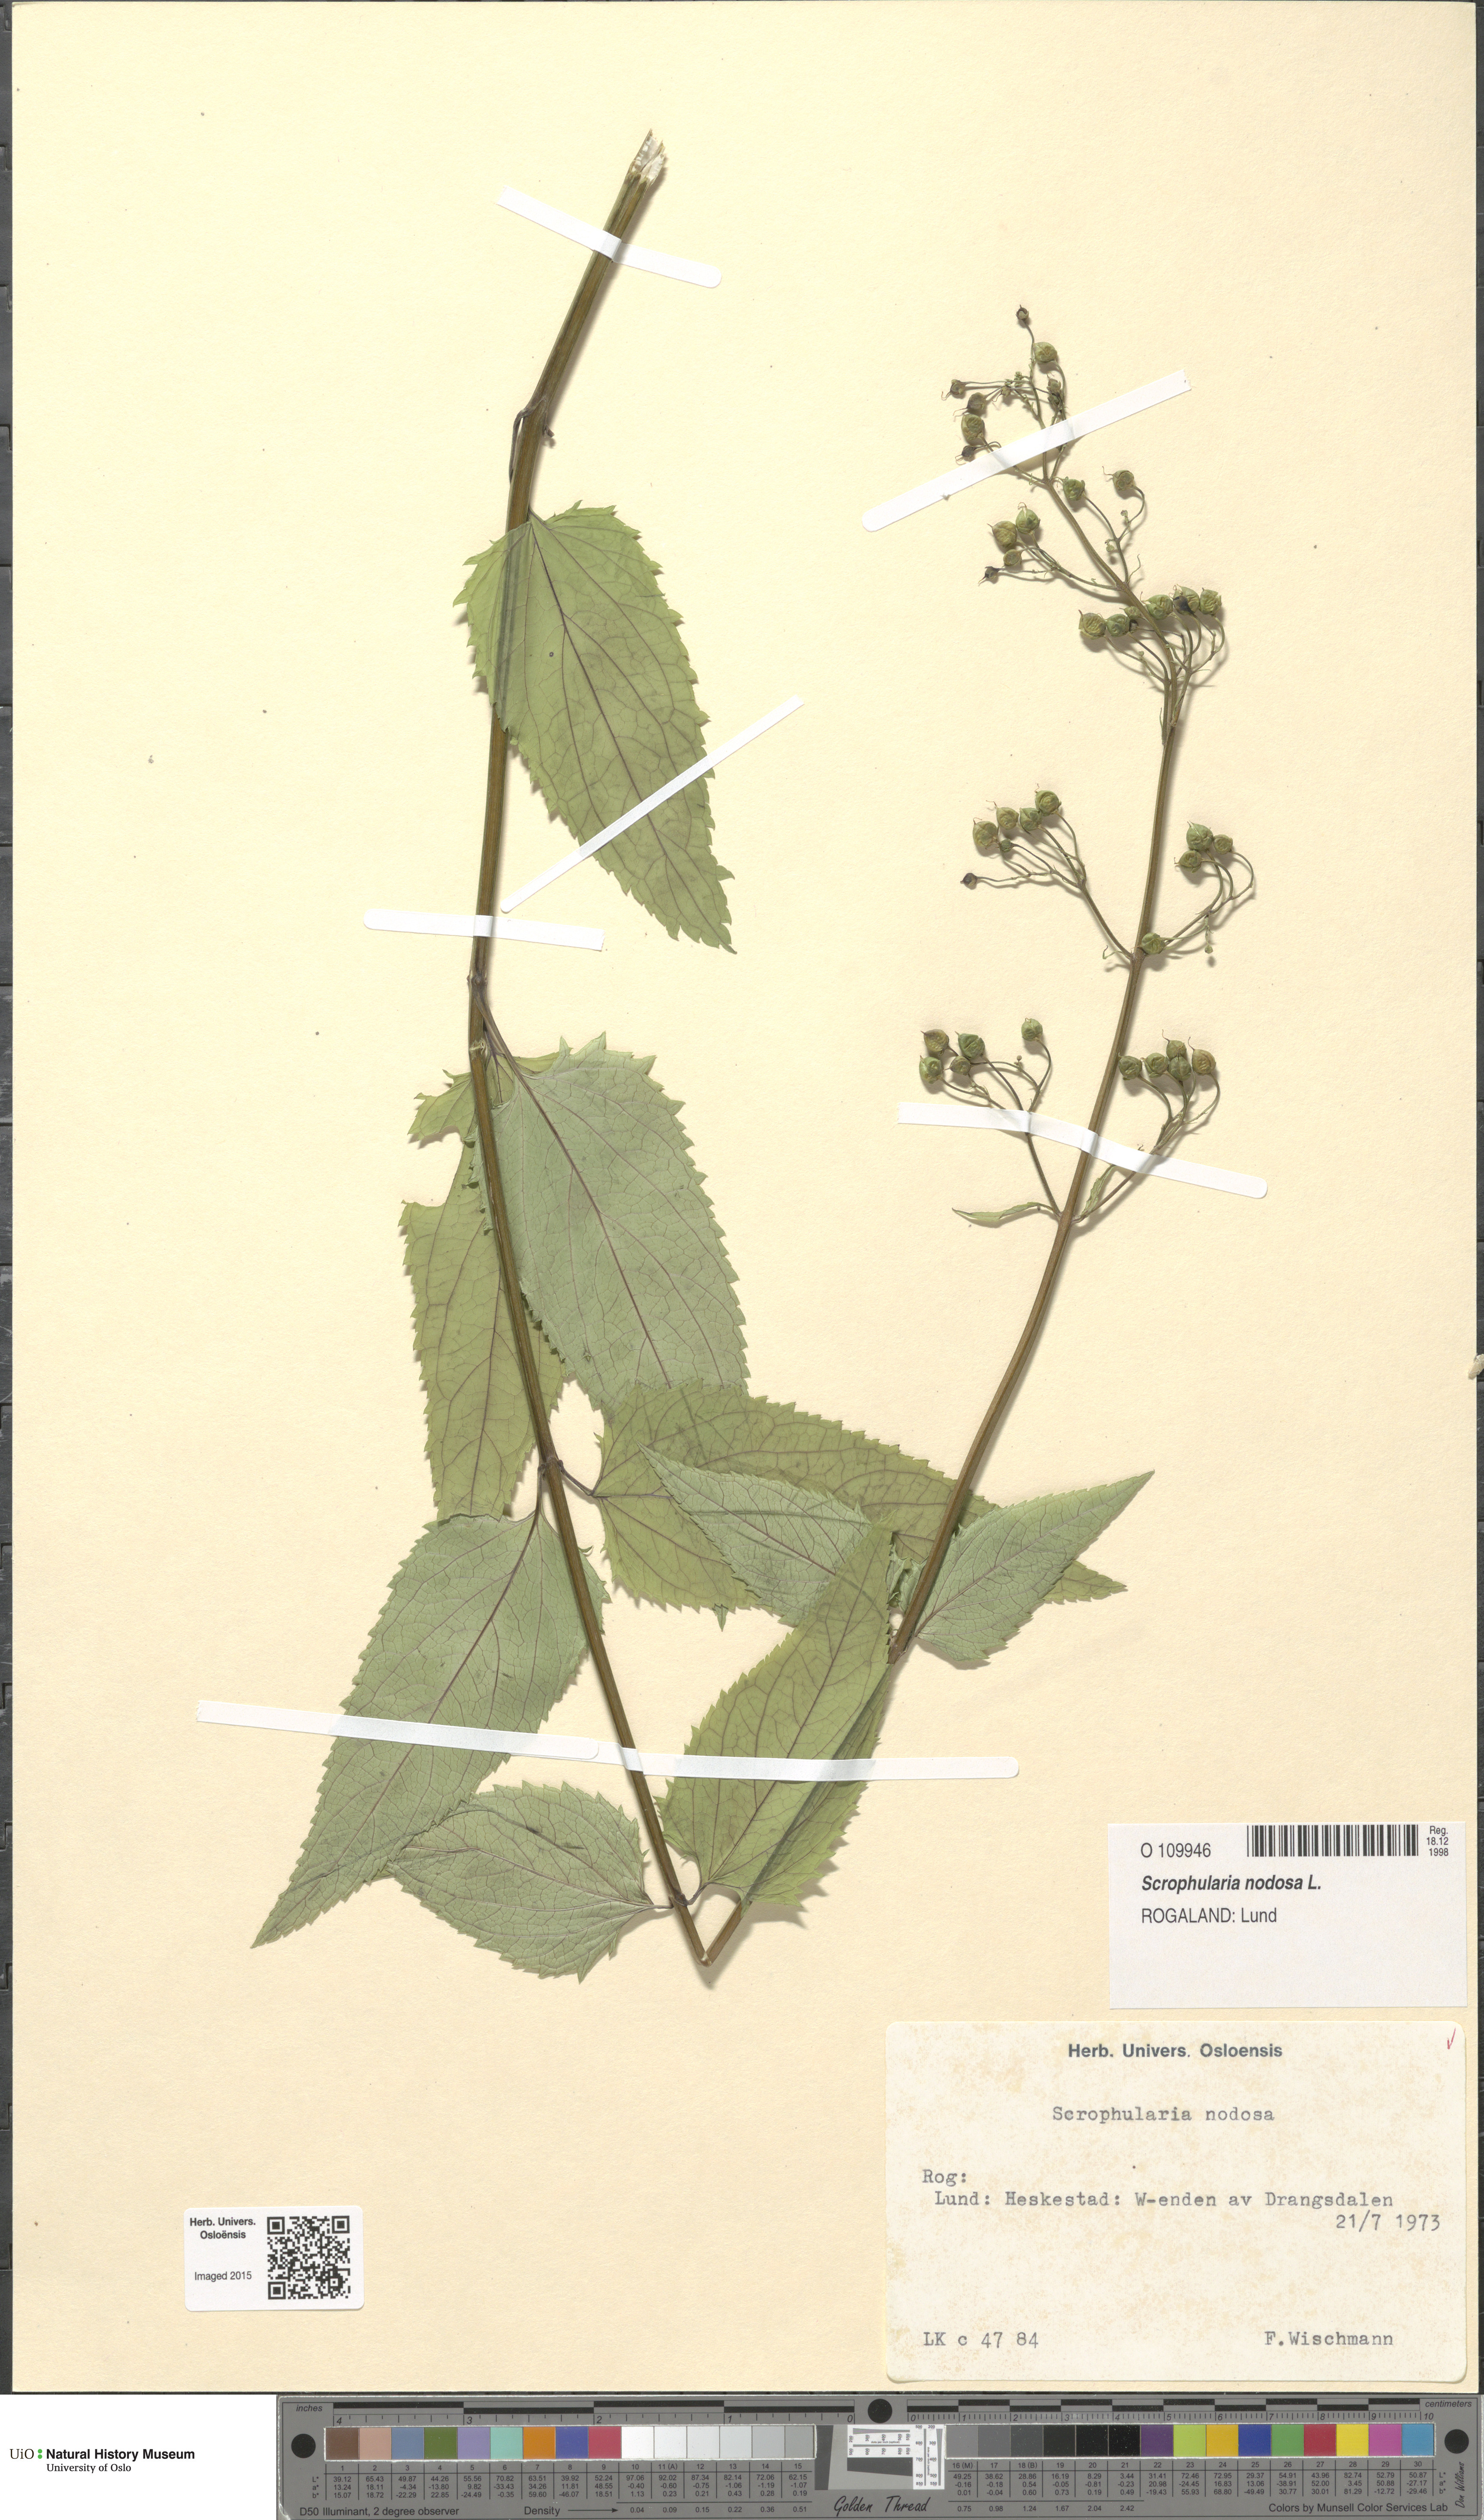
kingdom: Plantae
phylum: Tracheophyta
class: Magnoliopsida
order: Lamiales
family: Scrophulariaceae
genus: Scrophularia
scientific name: Scrophularia nodosa
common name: Common figwort
